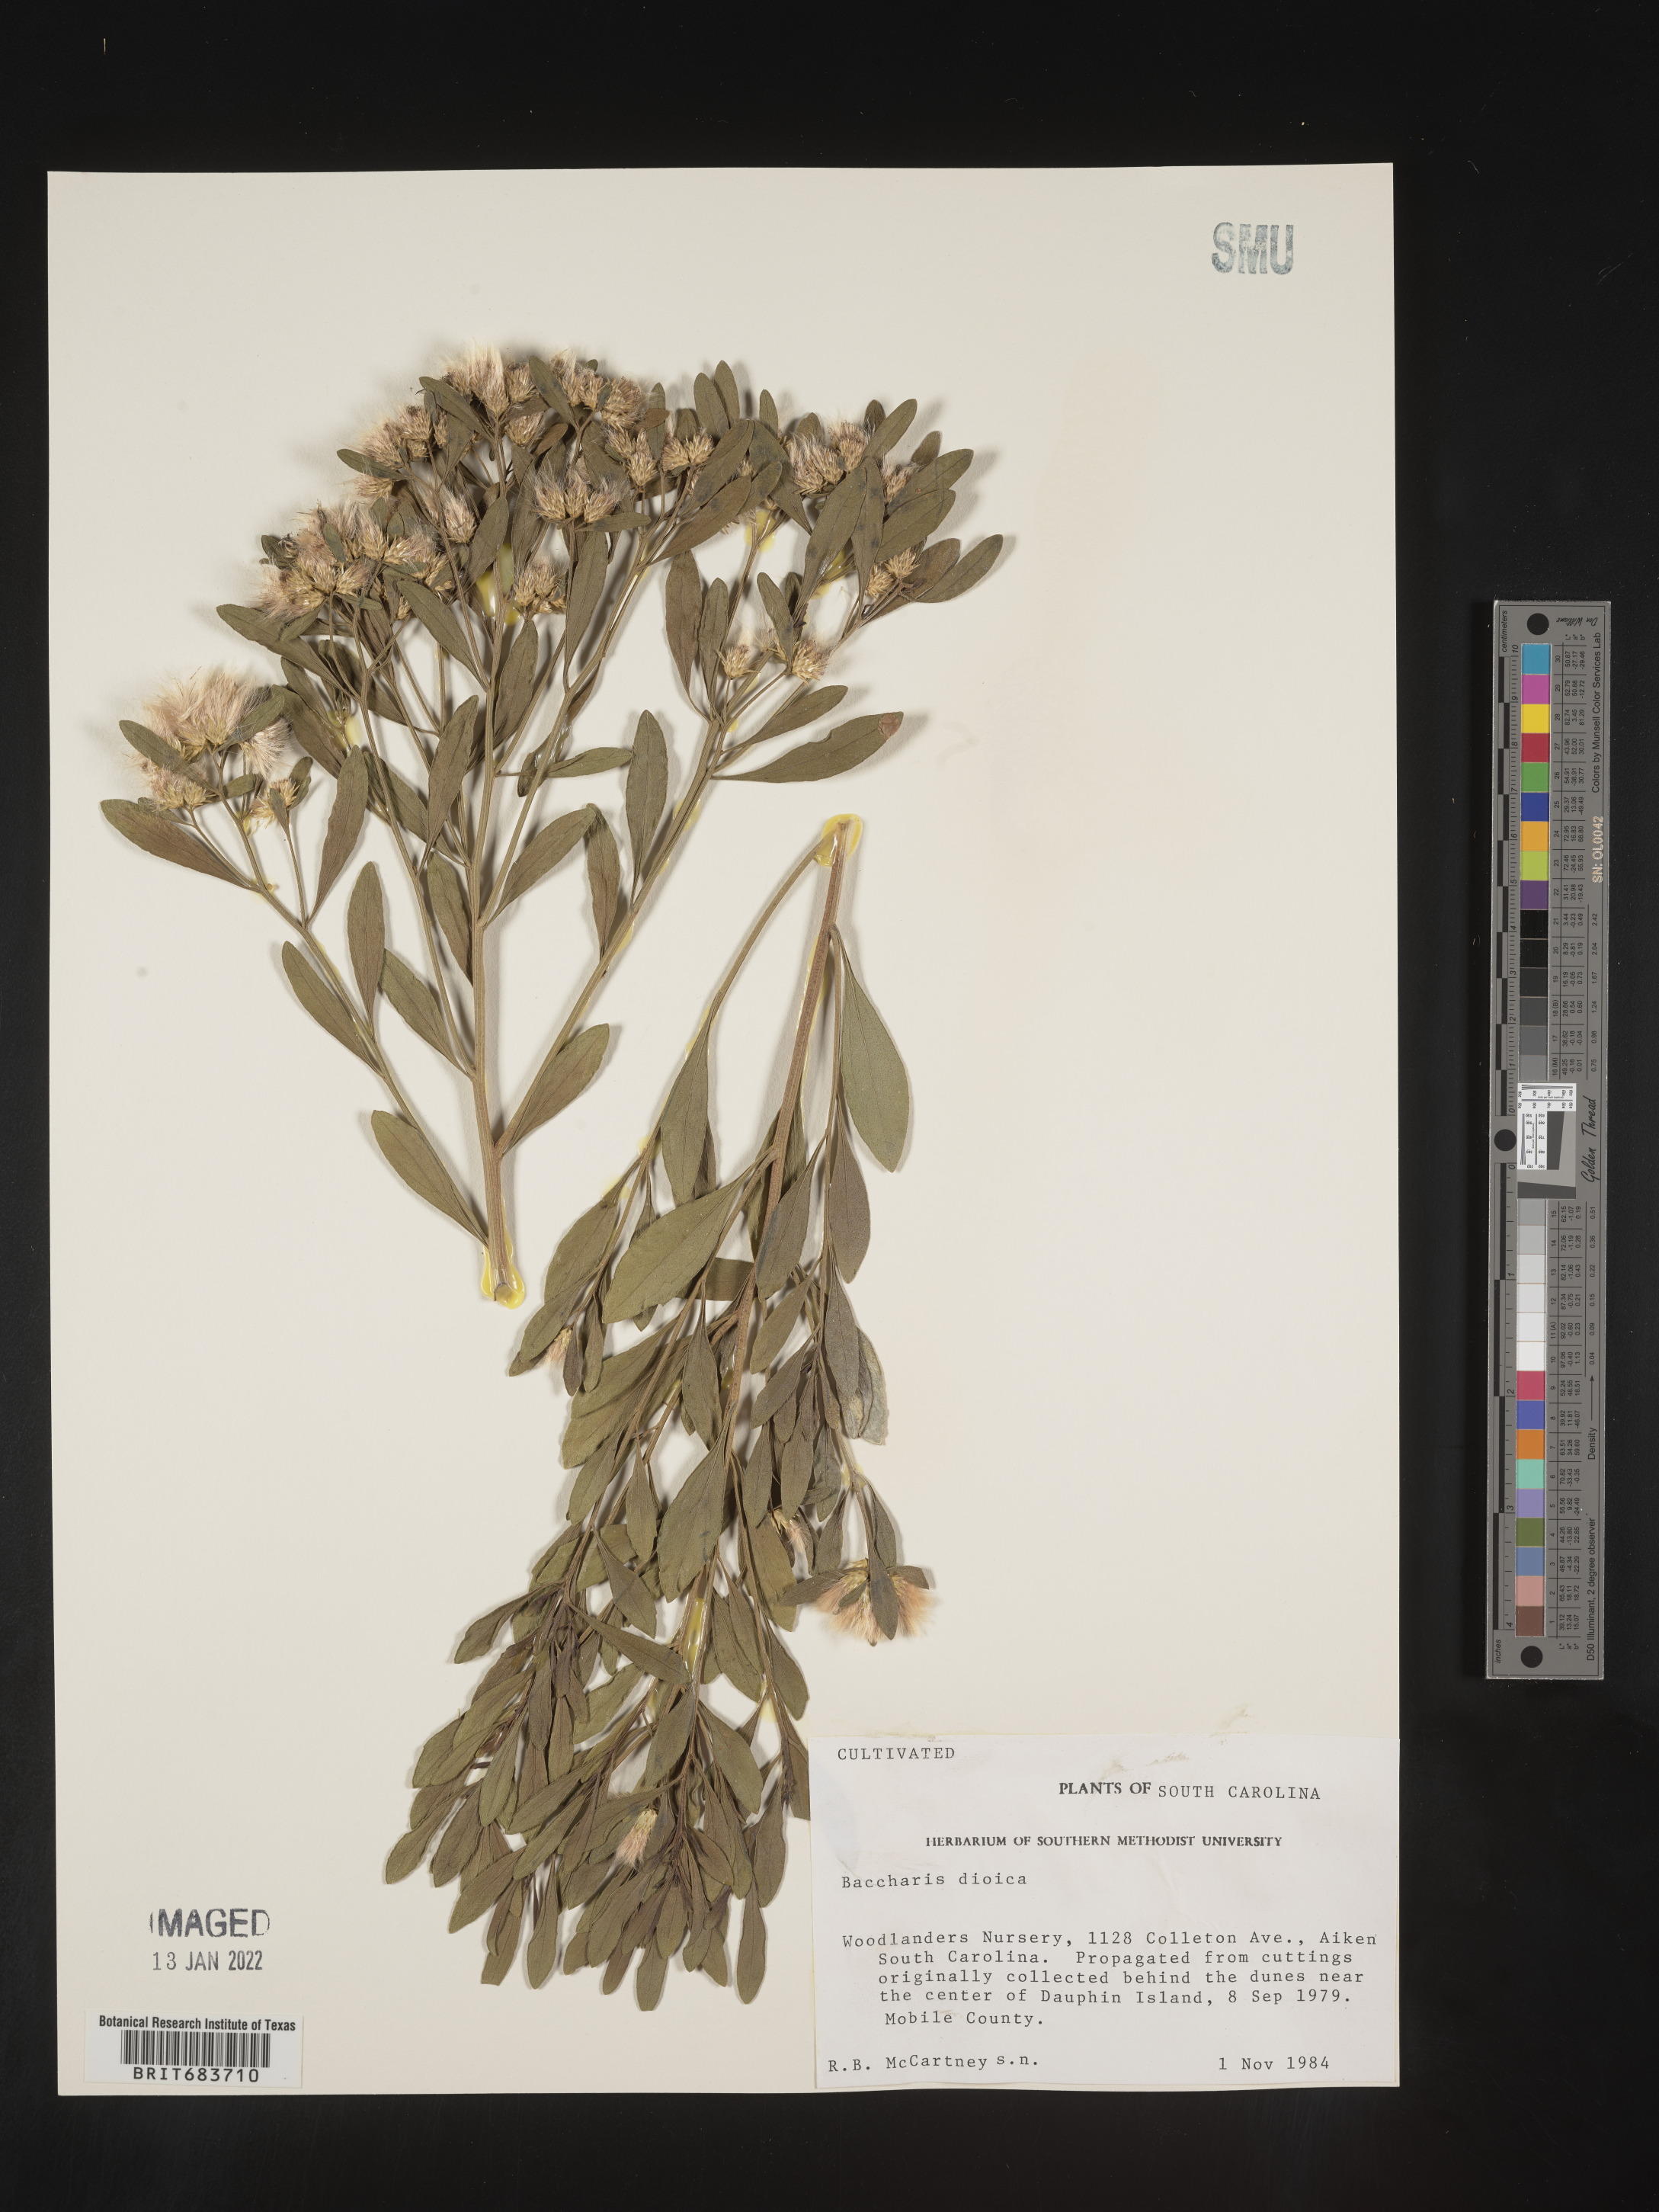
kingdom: Plantae
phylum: Tracheophyta
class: Magnoliopsida
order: Asterales
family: Asteraceae
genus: Baccharis
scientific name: Baccharis
